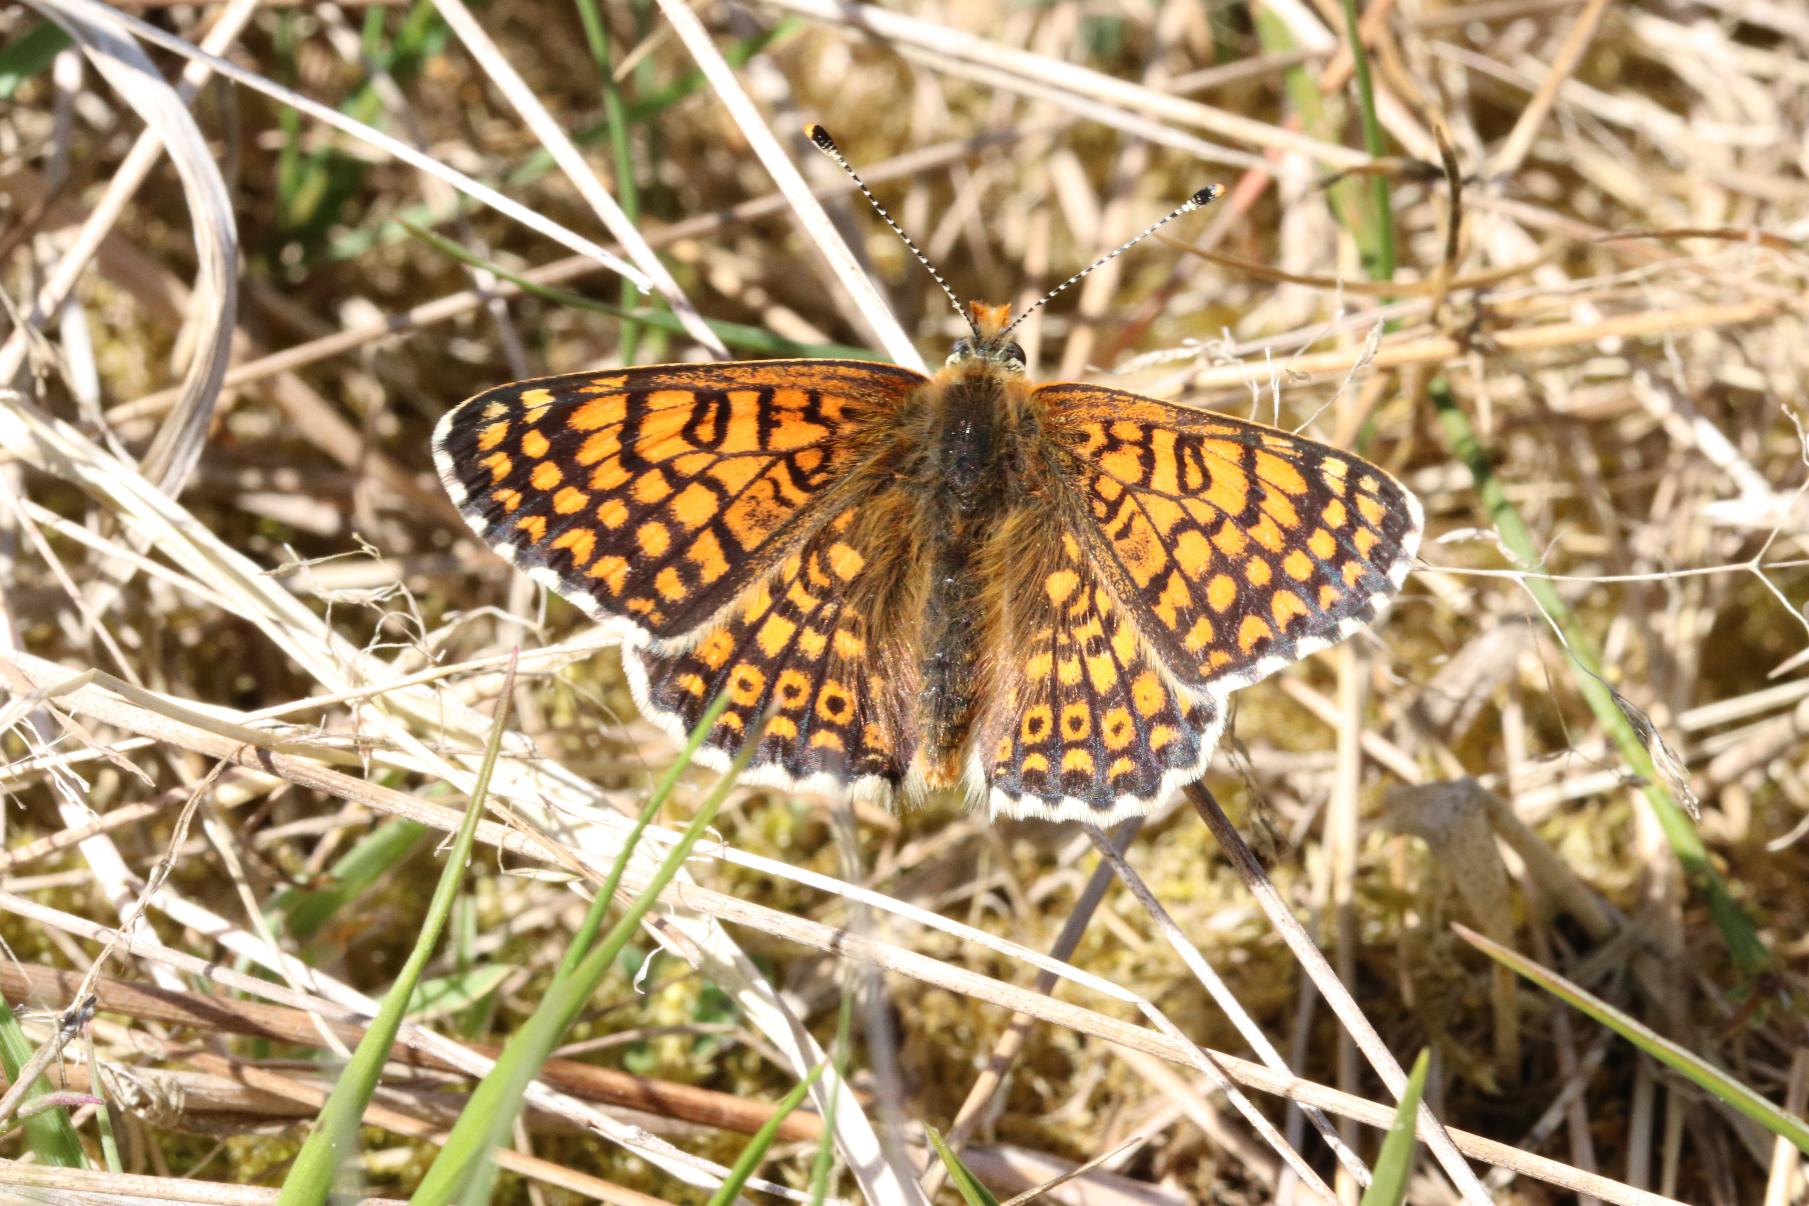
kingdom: Animalia
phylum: Arthropoda
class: Insecta
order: Lepidoptera
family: Nymphalidae
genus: Melitaea
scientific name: Melitaea cinxia
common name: Okkergul pletvinge
